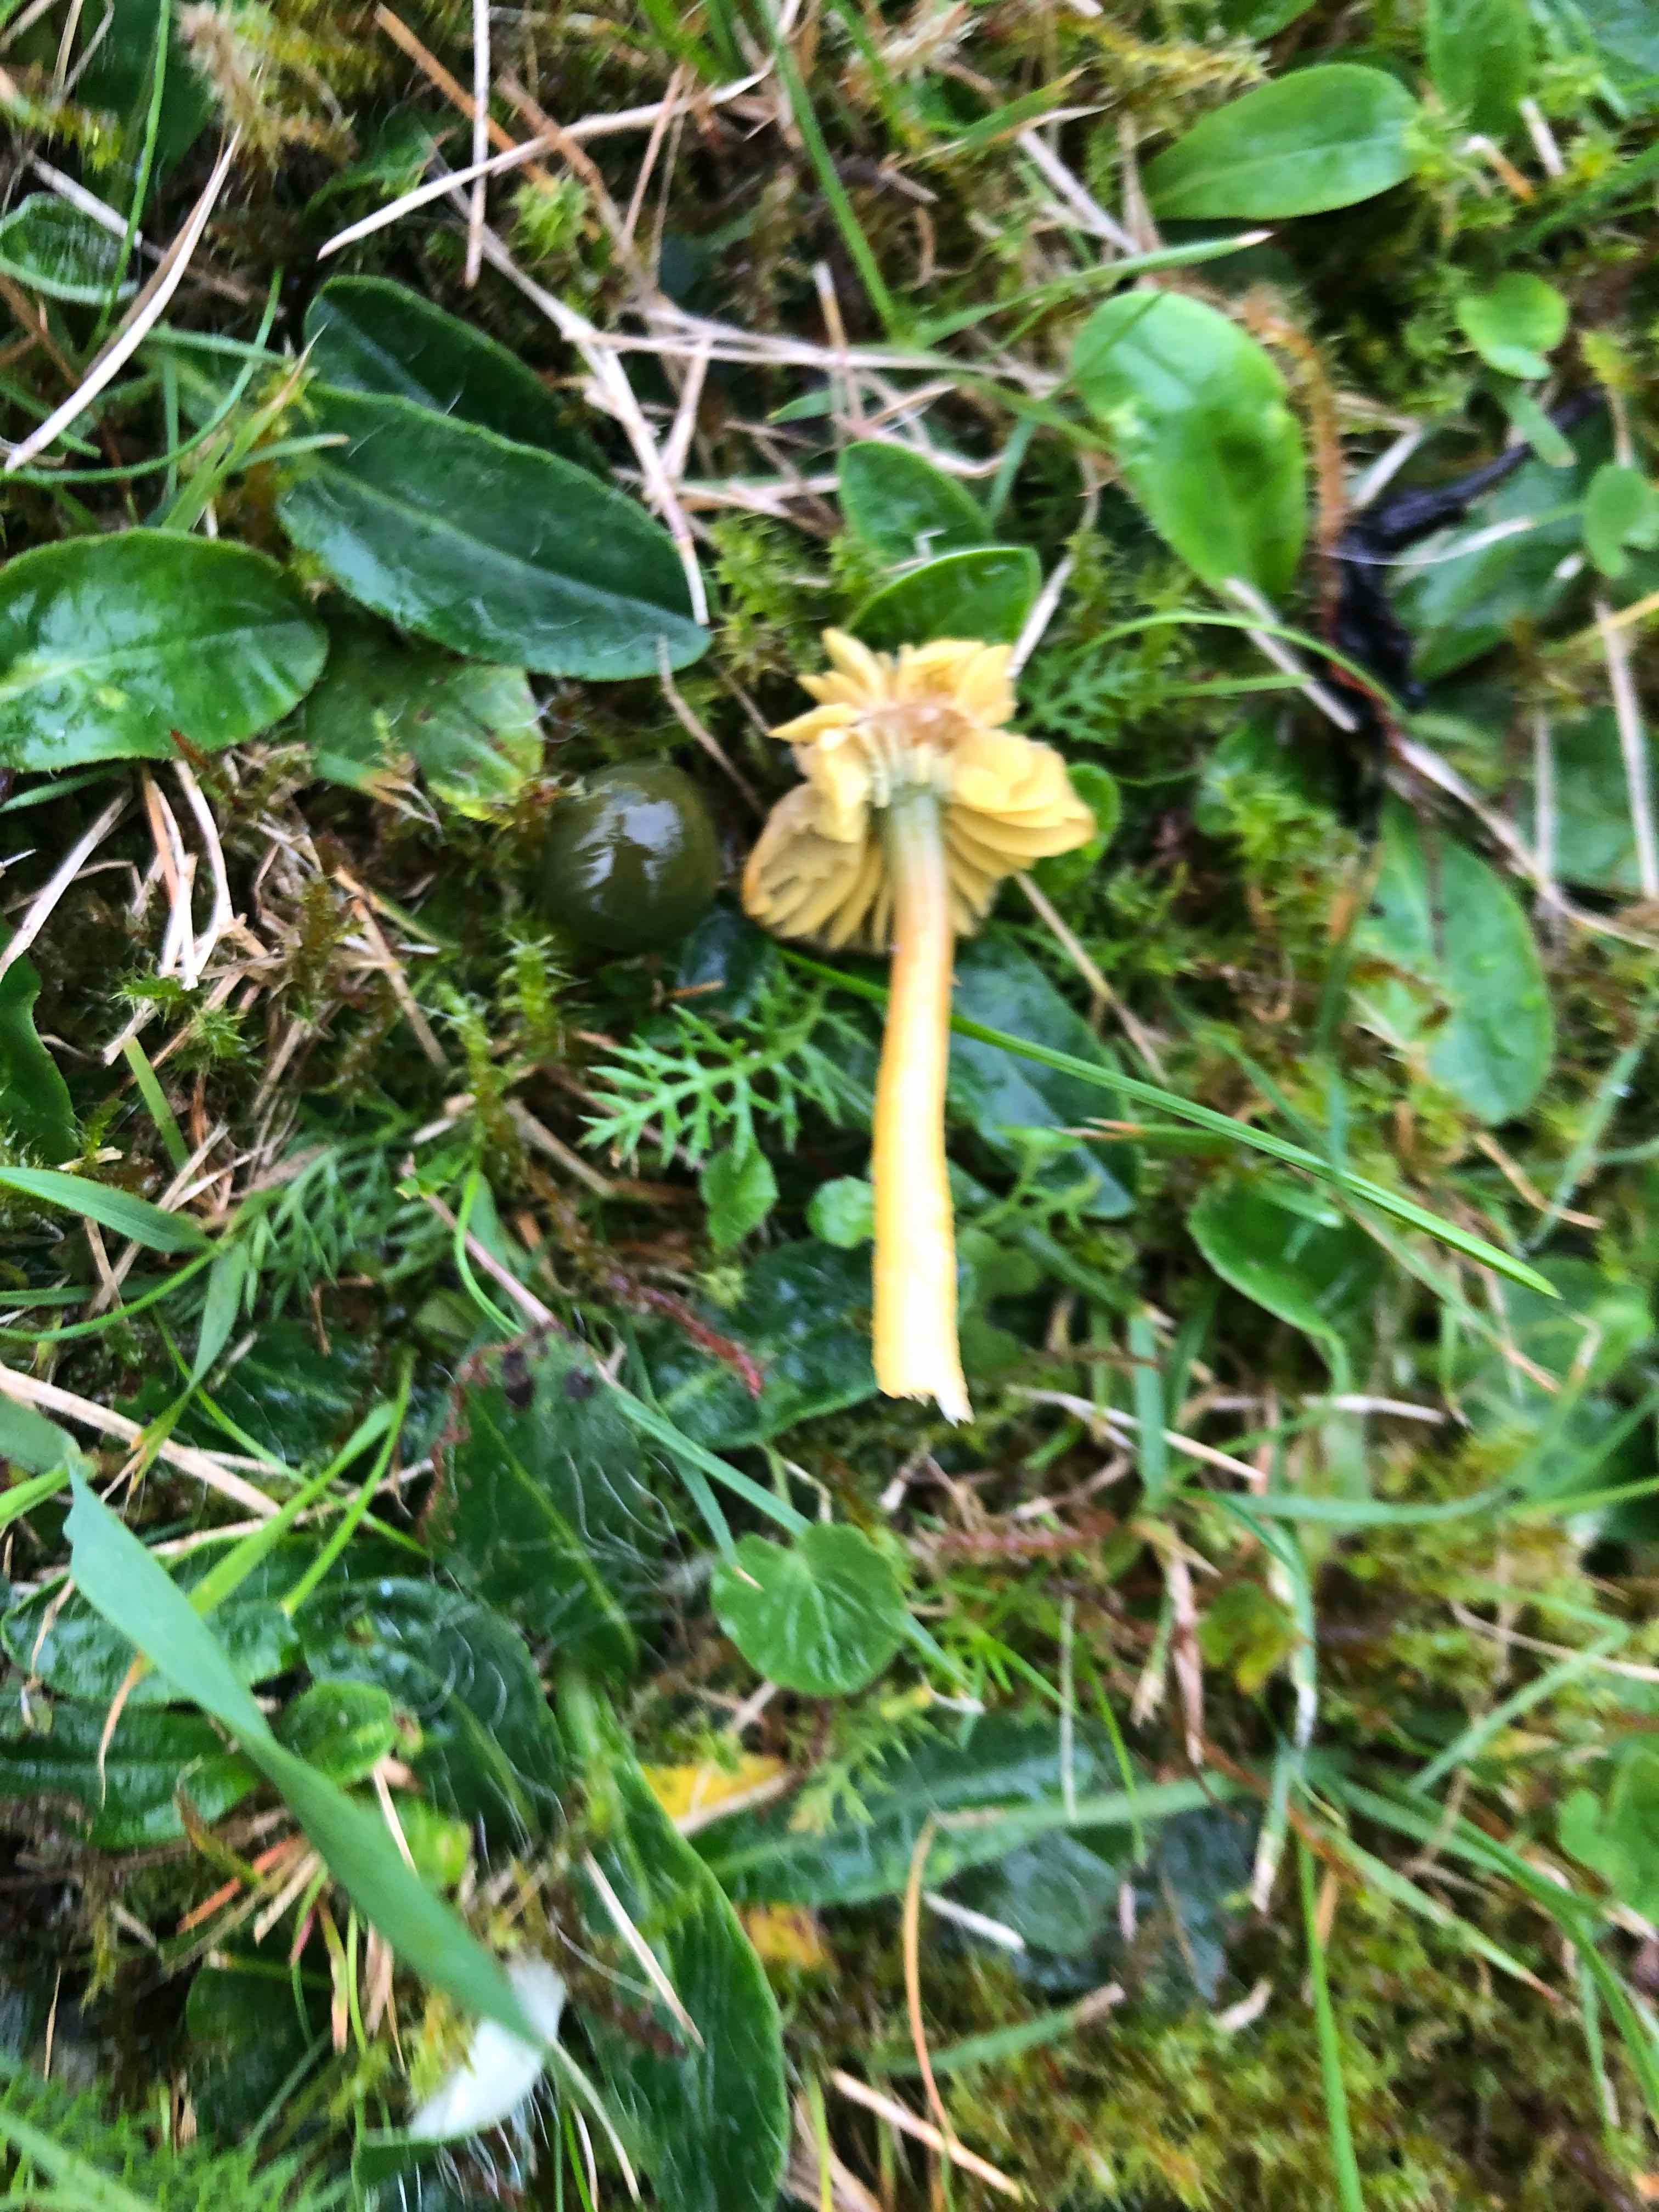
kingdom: Fungi
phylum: Basidiomycota
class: Agaricomycetes
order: Agaricales
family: Hygrophoraceae
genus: Gliophorus
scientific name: Gliophorus psittacinus
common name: papegøje-vokshat
